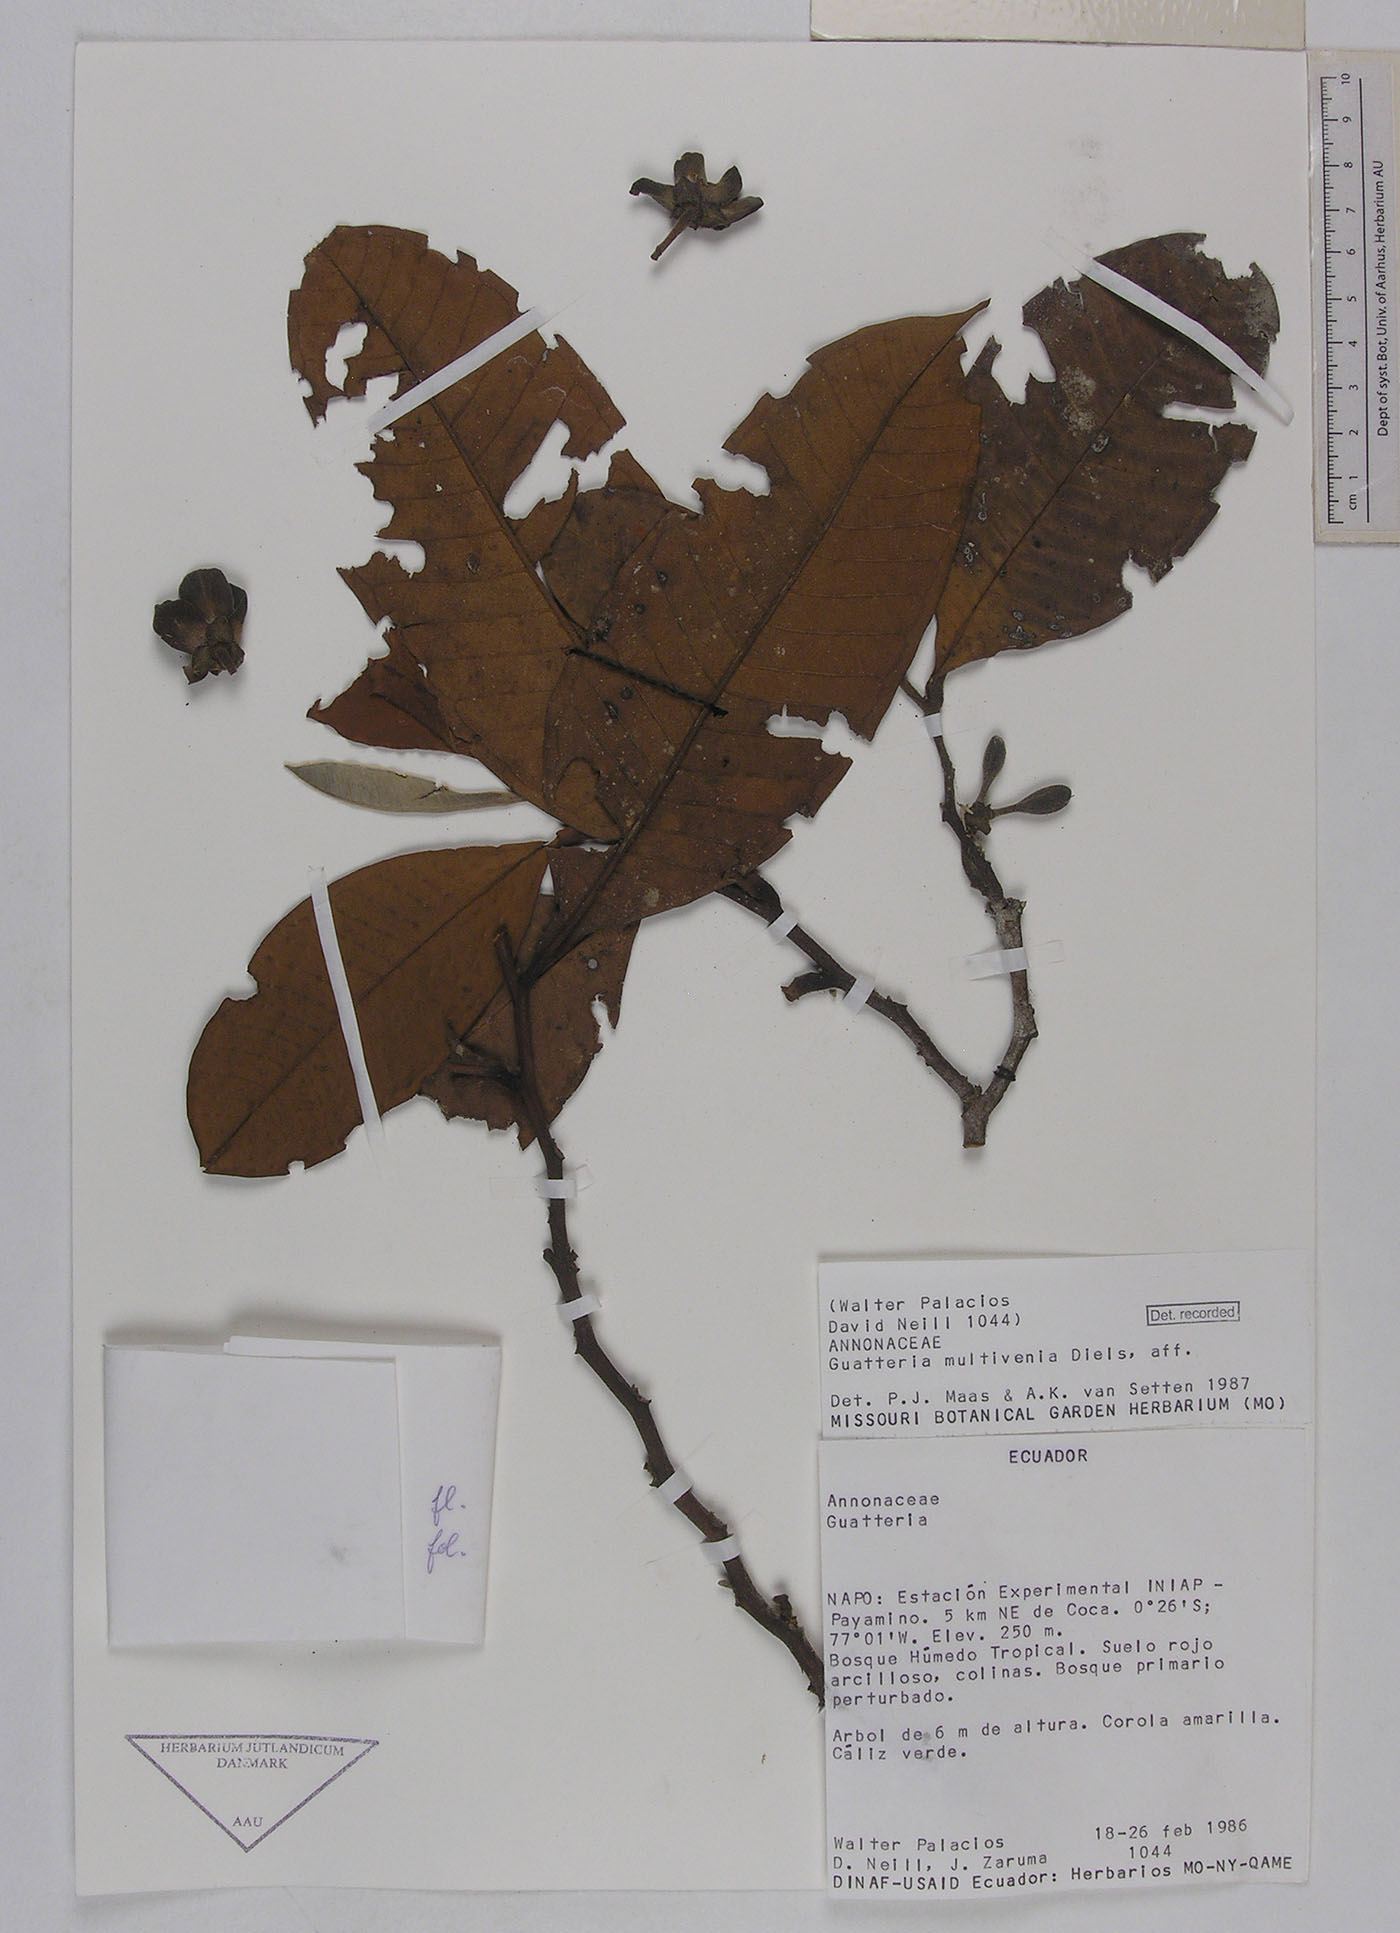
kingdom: Plantae
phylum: Tracheophyta
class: Magnoliopsida
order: Magnoliales
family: Annonaceae
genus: Guatteria
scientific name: Guatteria decurrens
